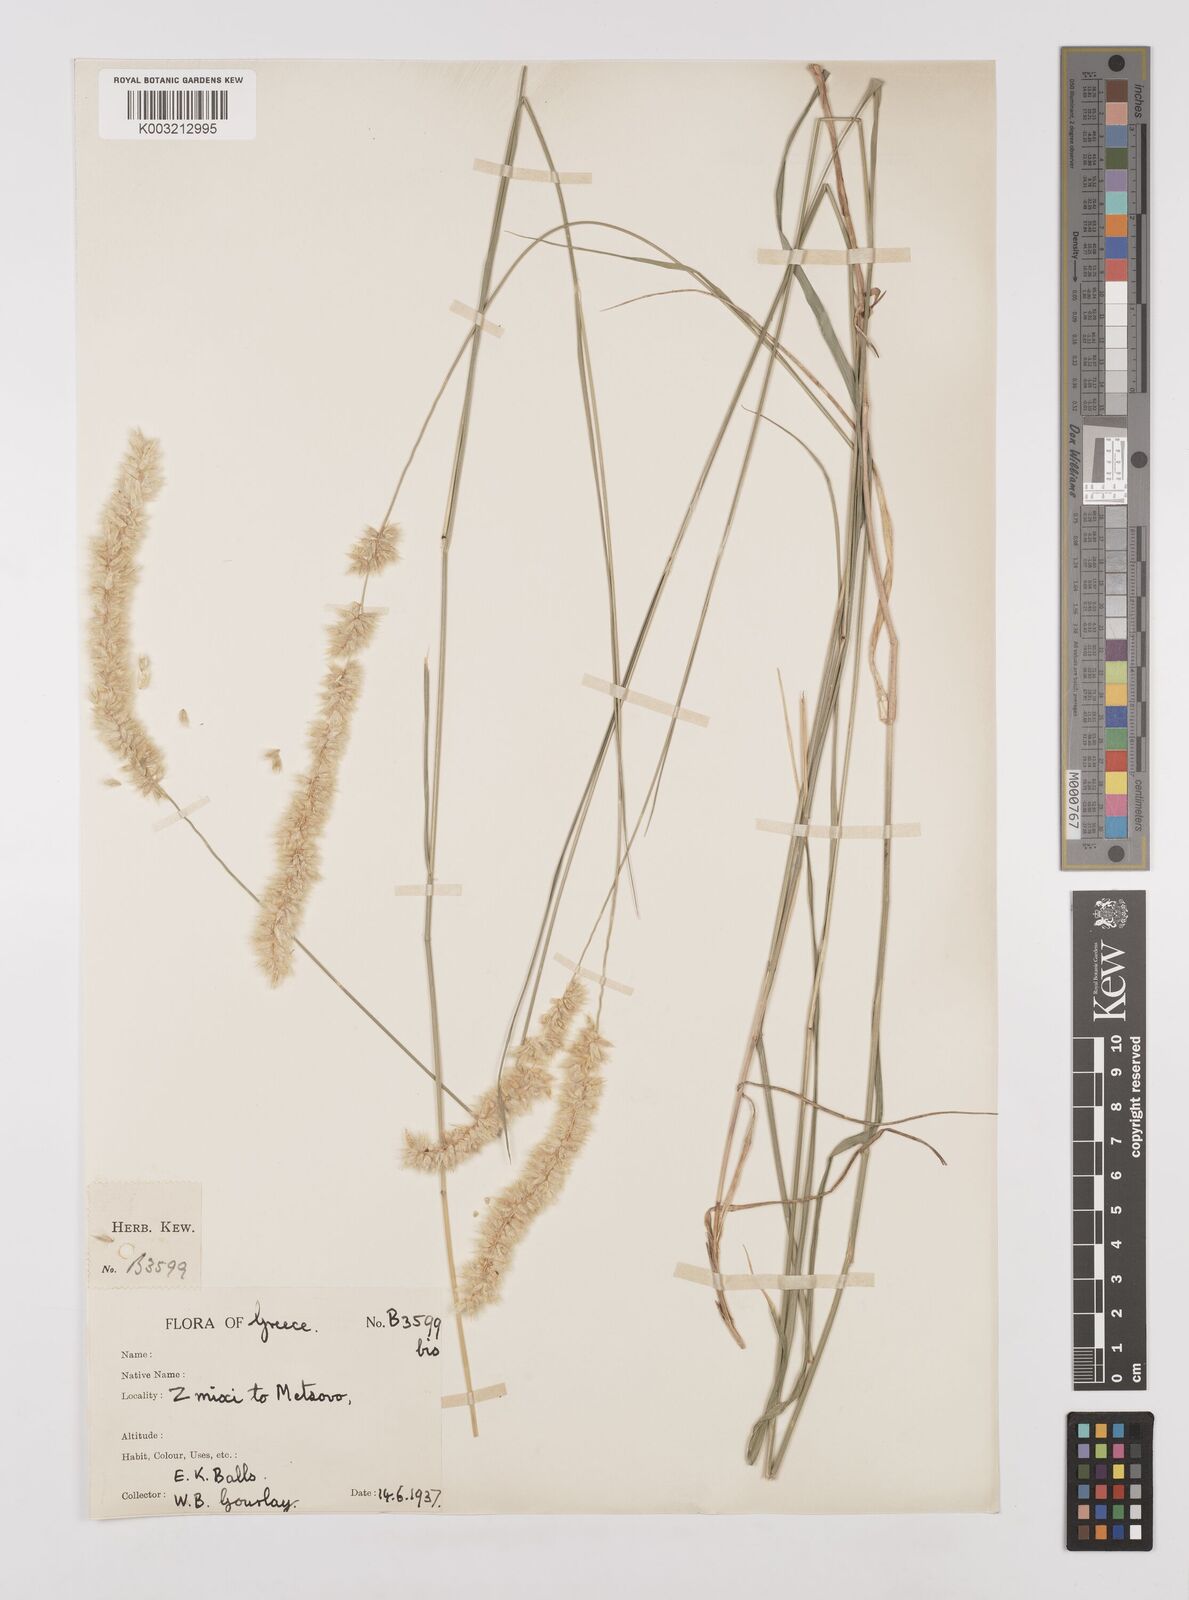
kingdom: Plantae
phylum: Tracheophyta
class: Liliopsida
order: Poales
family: Poaceae
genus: Melica
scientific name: Melica transsilvanica
